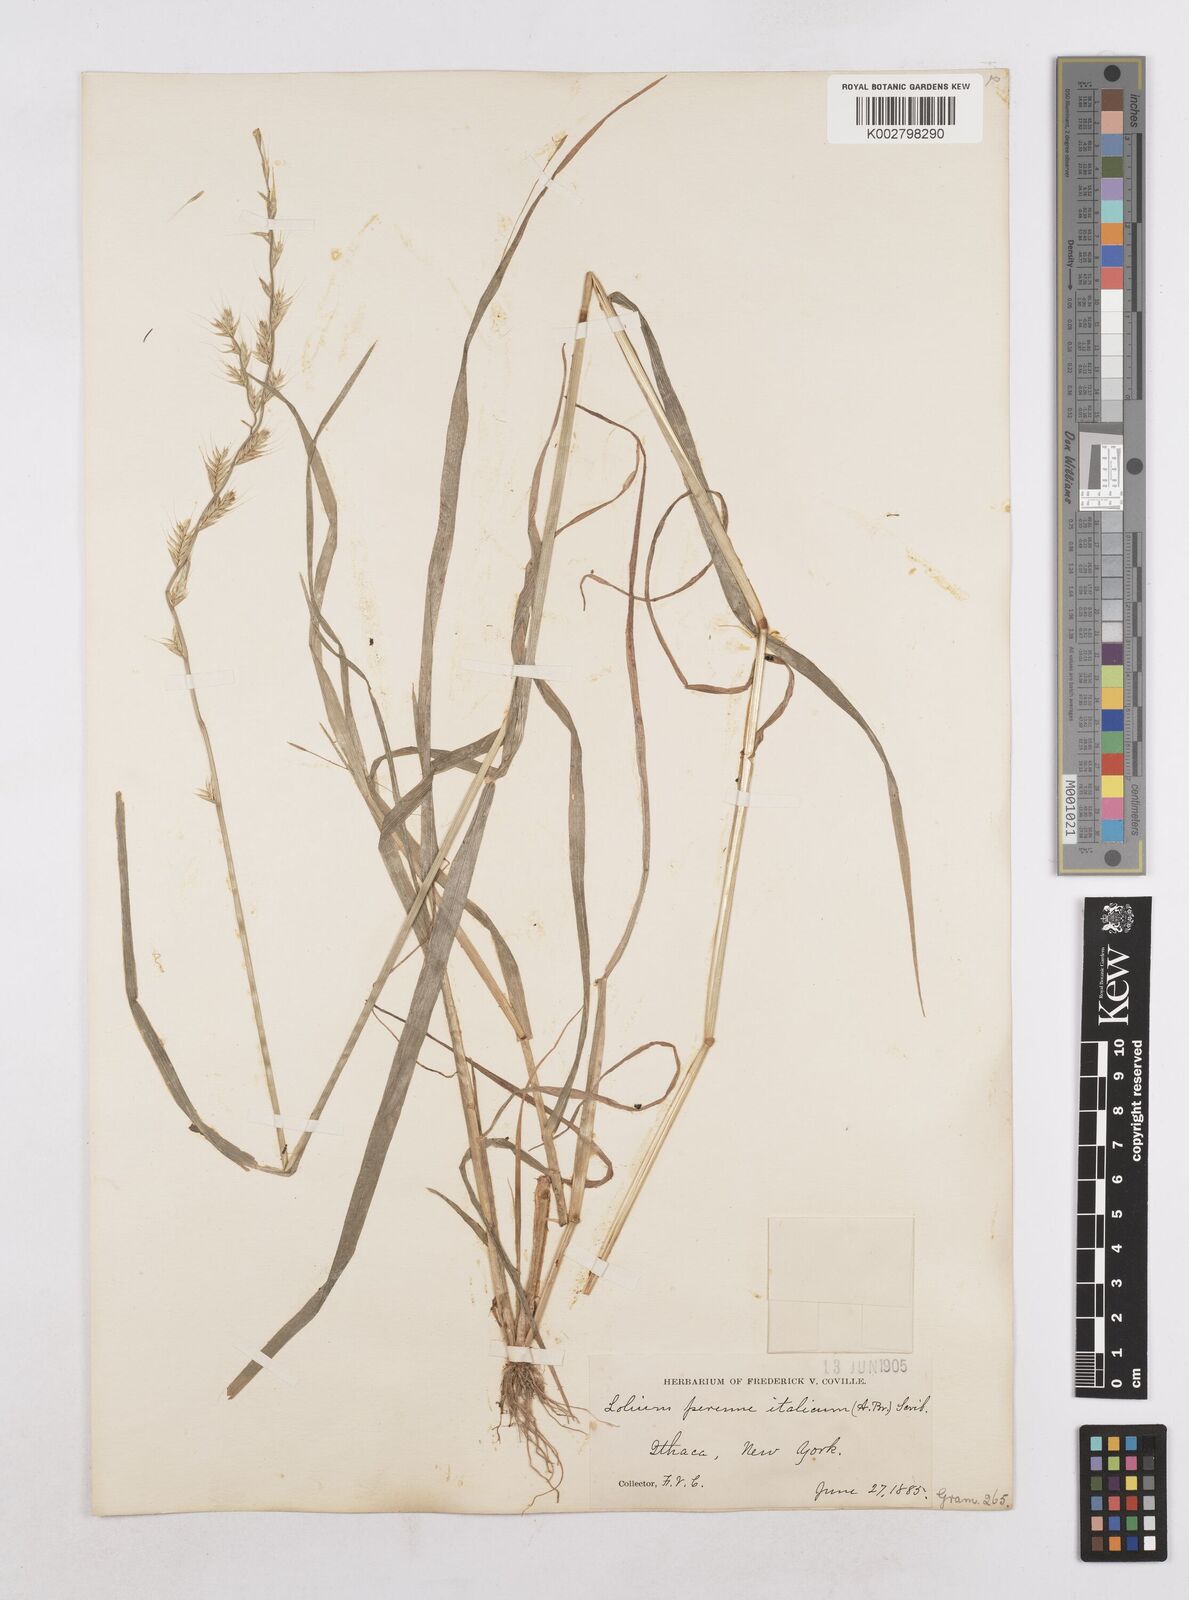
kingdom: Plantae
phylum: Tracheophyta
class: Liliopsida
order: Poales
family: Poaceae
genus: Lolium
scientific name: Lolium multiflorum
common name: Annual ryegrass
